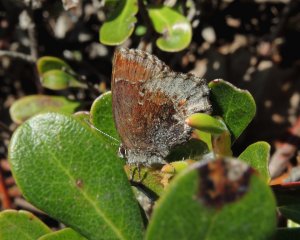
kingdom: Animalia
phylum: Arthropoda
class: Insecta
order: Lepidoptera
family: Lycaenidae
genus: Callophrys
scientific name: Callophrys polios
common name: Hoary Elfin
